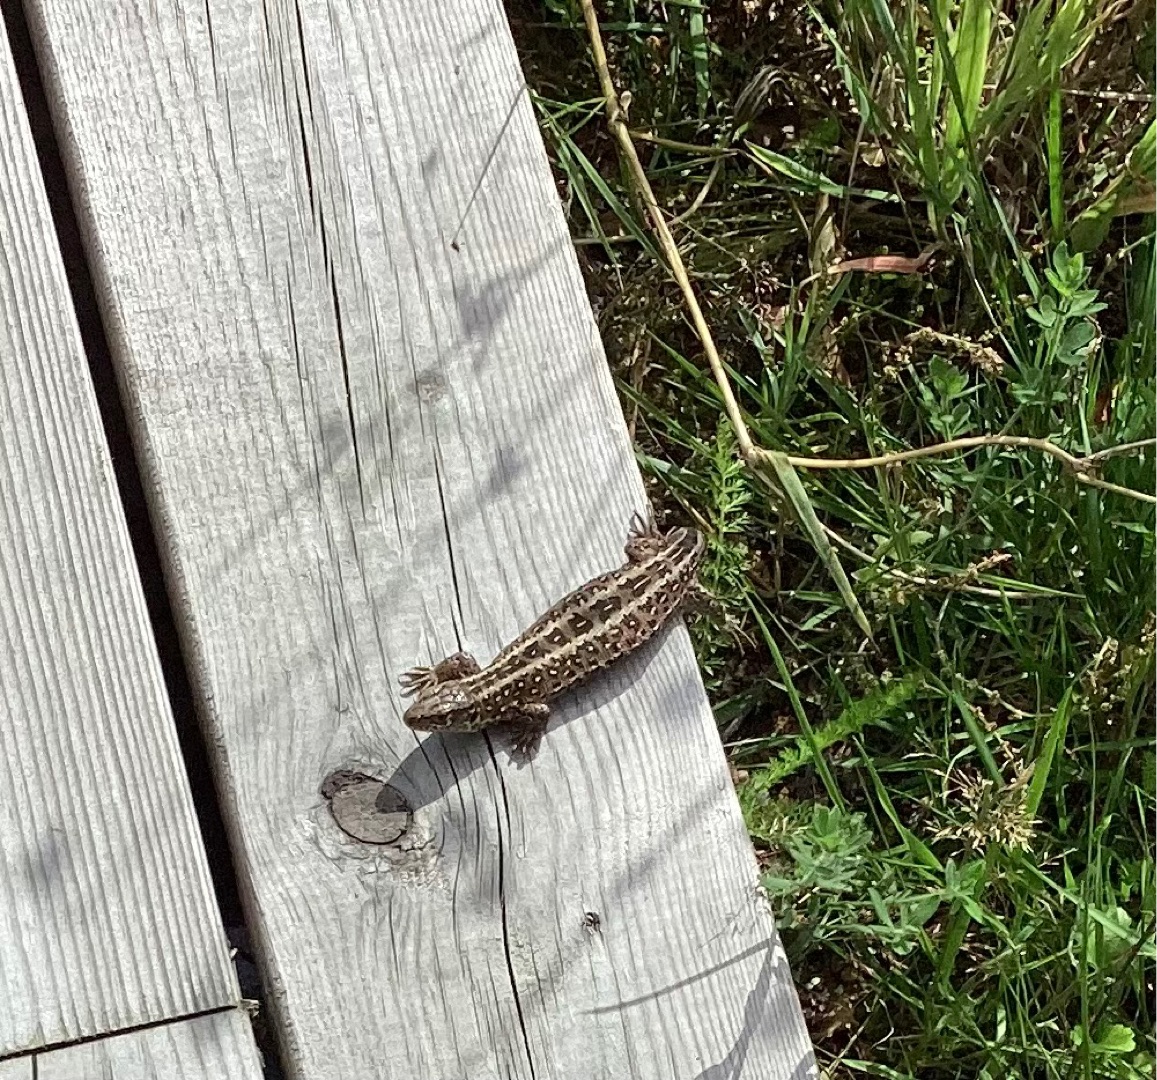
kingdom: Animalia
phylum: Chordata
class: Squamata
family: Lacertidae
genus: Lacerta
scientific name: Lacerta agilis
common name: Markfirben
